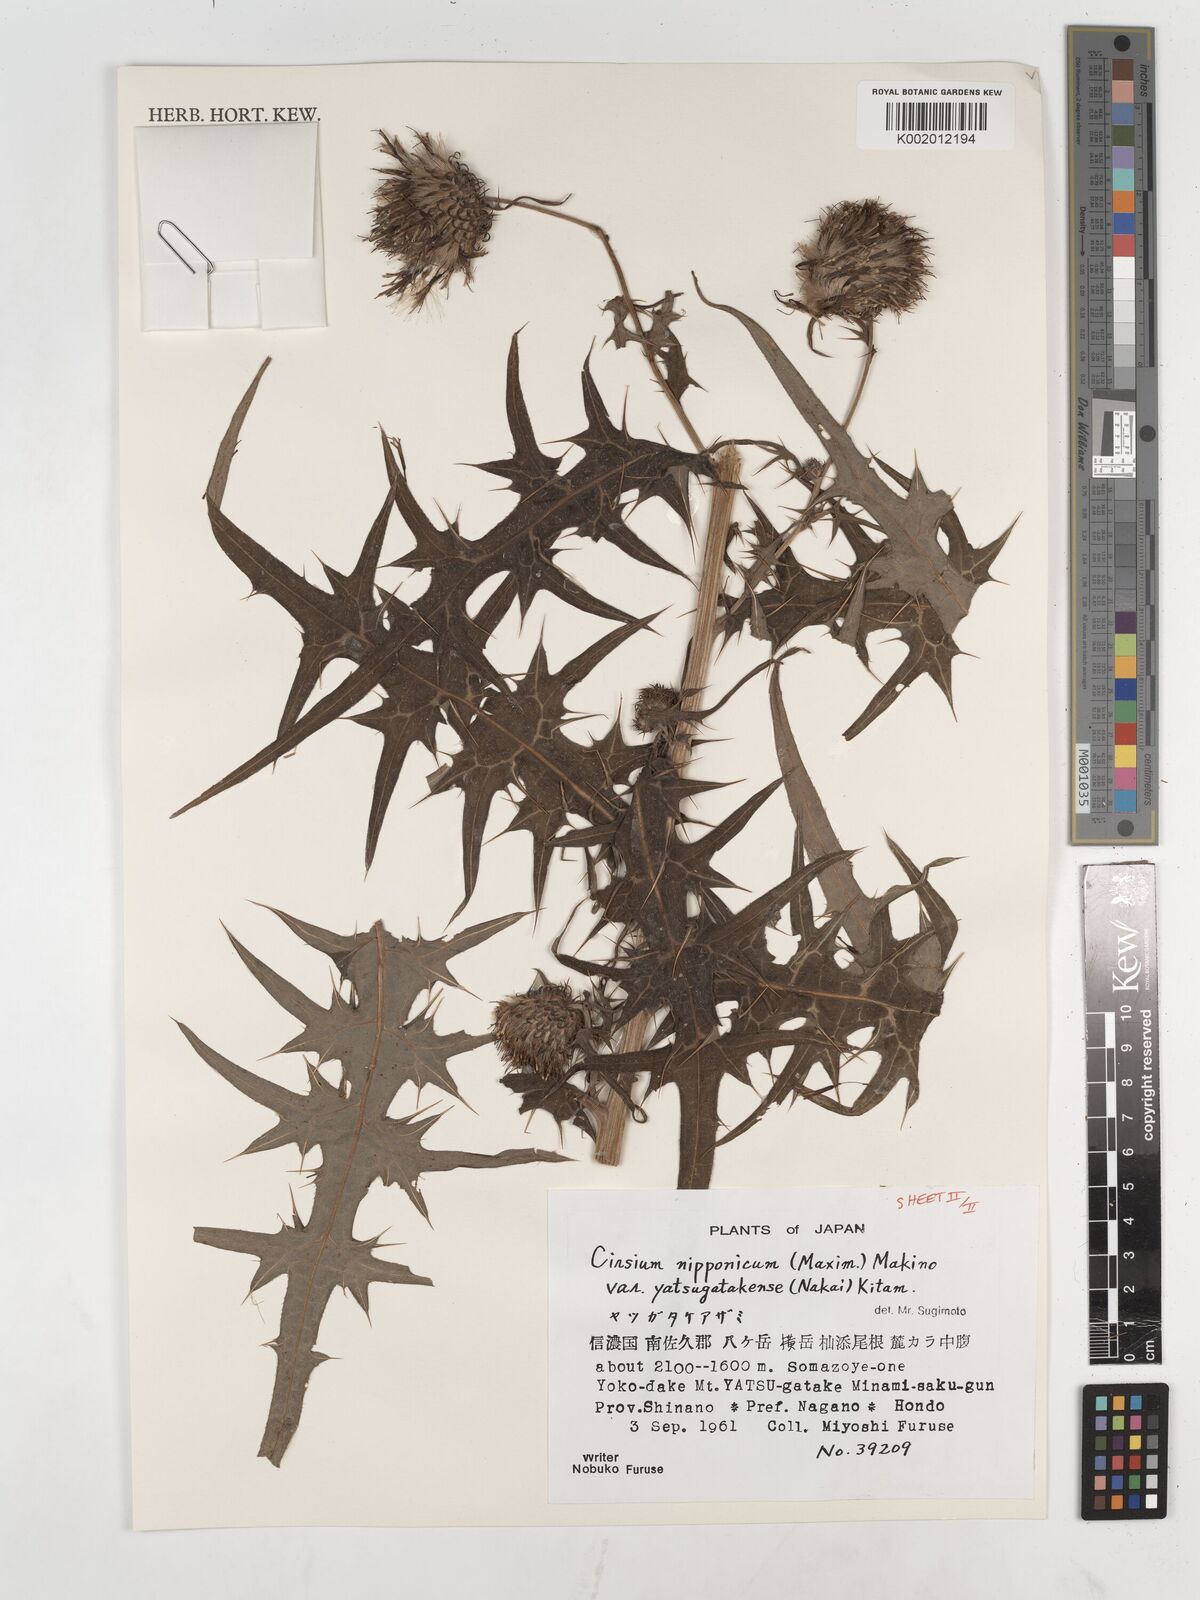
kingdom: Plantae
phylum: Tracheophyta
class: Magnoliopsida
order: Asterales
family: Asteraceae
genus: Cirsium
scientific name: Cirsium nipponicum
